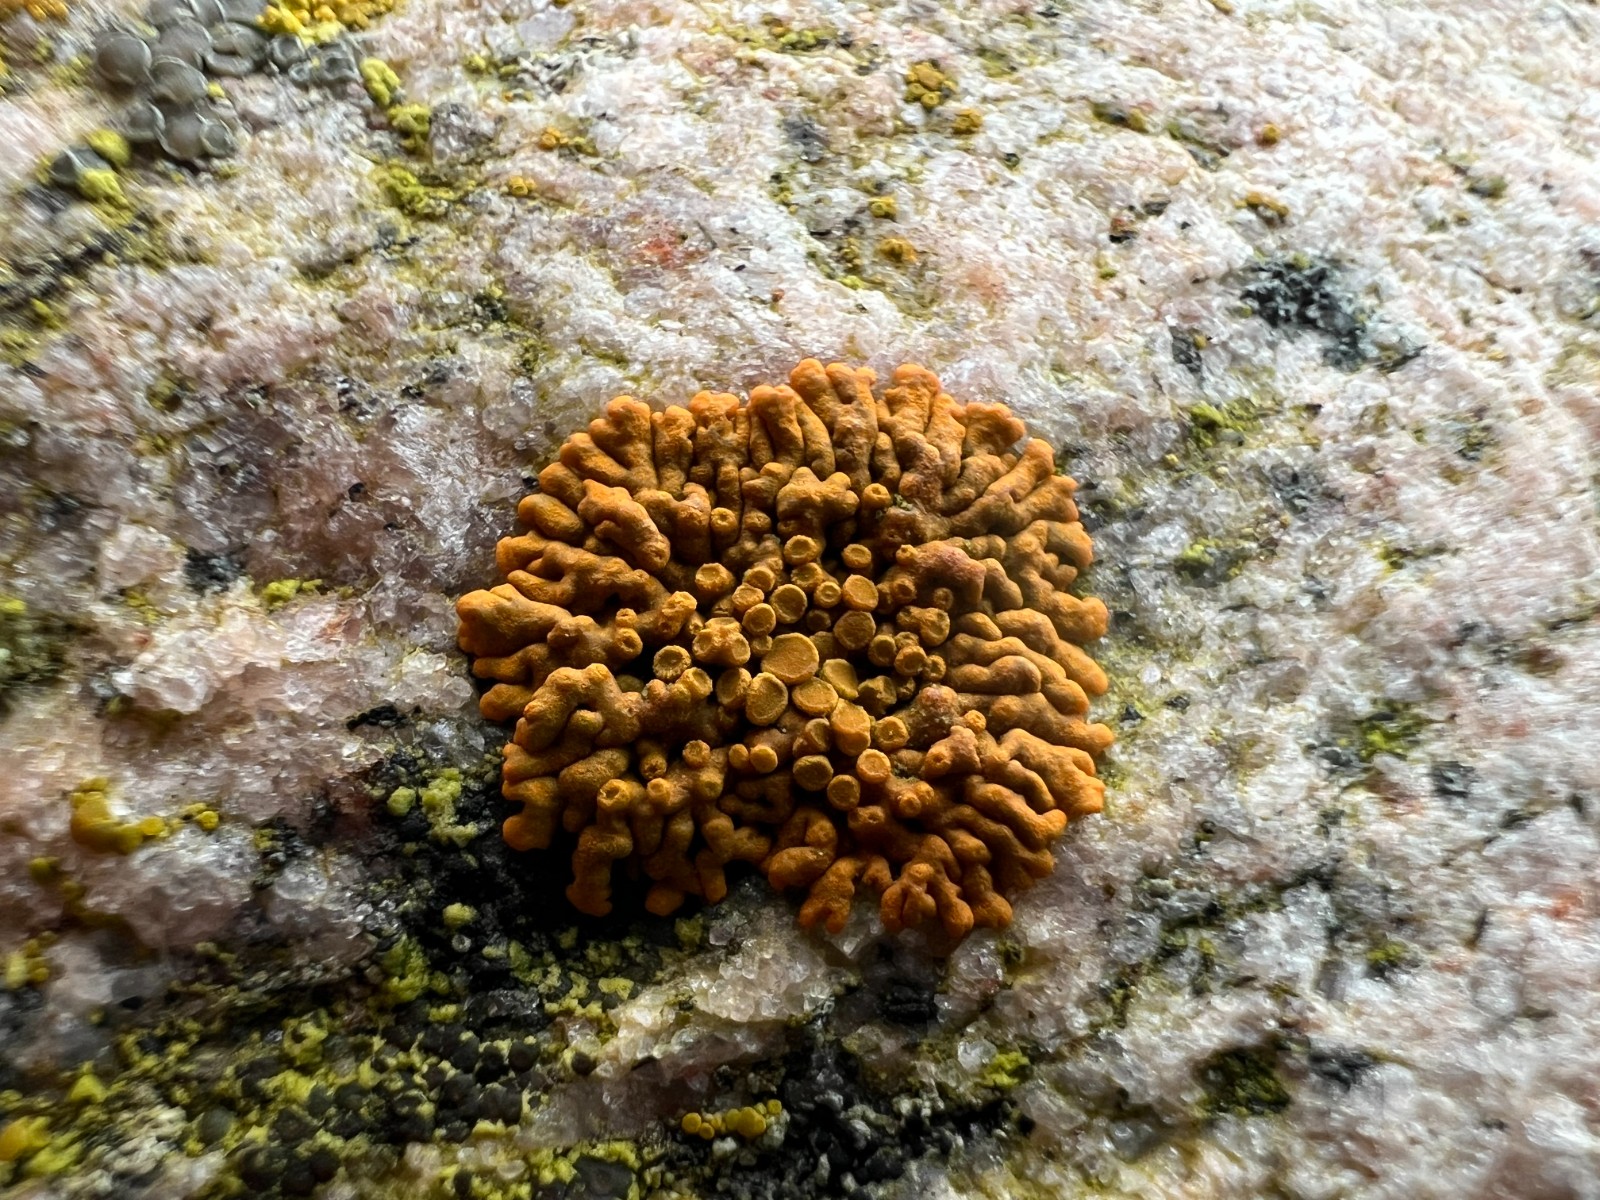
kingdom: Fungi
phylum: Ascomycota
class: Lecanoromycetes
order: Teloschistales
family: Teloschistaceae
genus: Xanthoria
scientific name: Xanthoria elegans
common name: fjeld-væggelav
